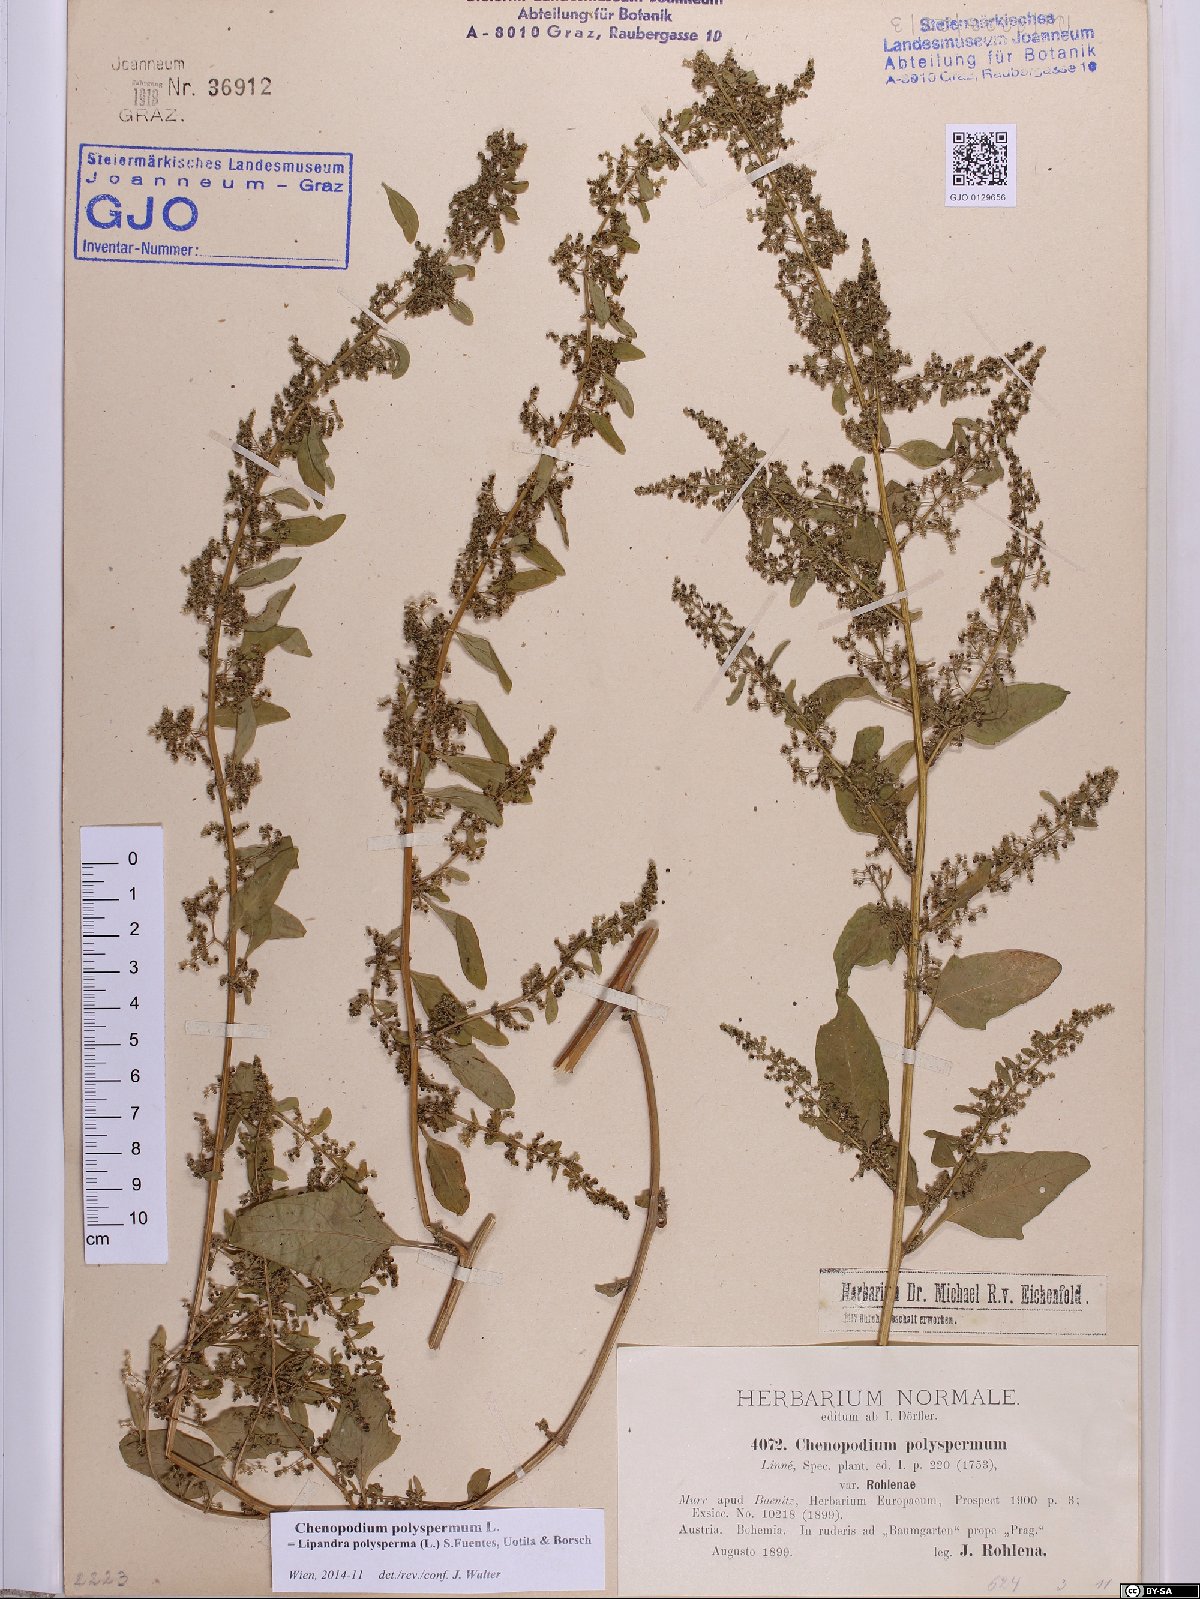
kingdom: Plantae
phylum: Tracheophyta
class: Magnoliopsida
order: Caryophyllales
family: Amaranthaceae
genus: Lipandra
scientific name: Lipandra polysperma
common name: Many-seed goosefoot
